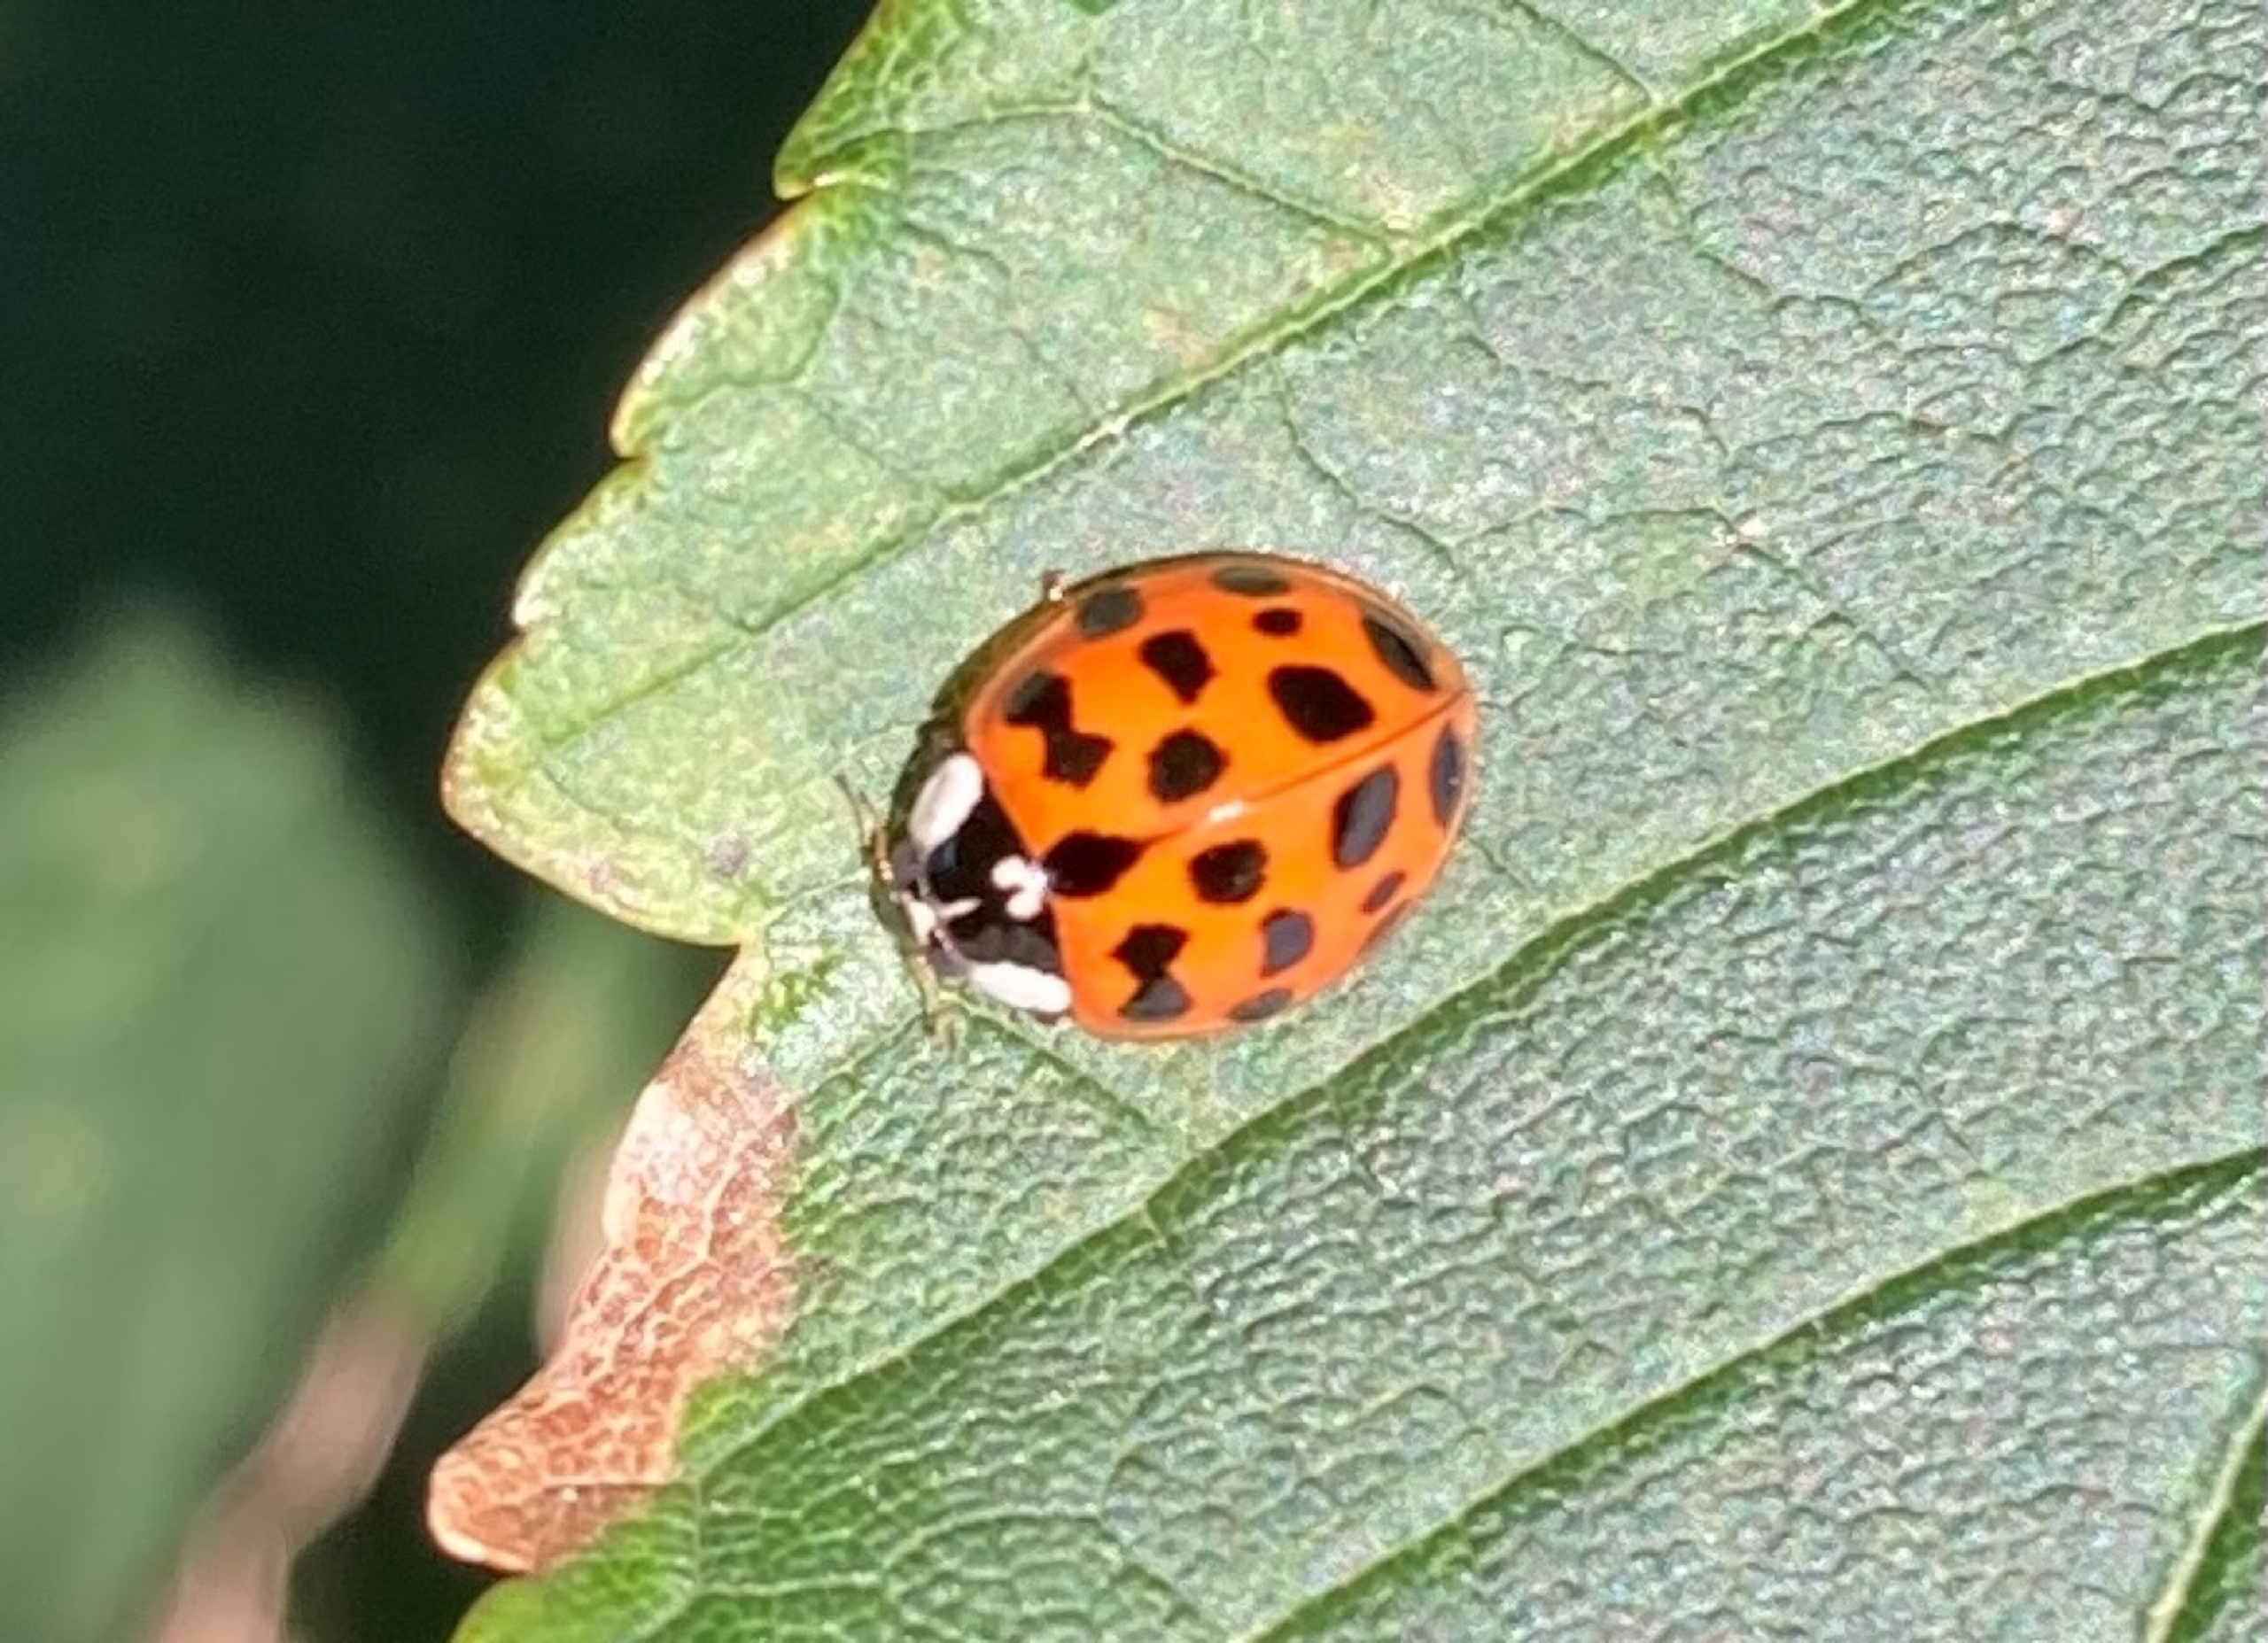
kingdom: Animalia
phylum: Arthropoda
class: Insecta
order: Coleoptera
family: Coccinellidae
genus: Harmonia
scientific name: Harmonia axyridis
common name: Harlekinmariehøne
